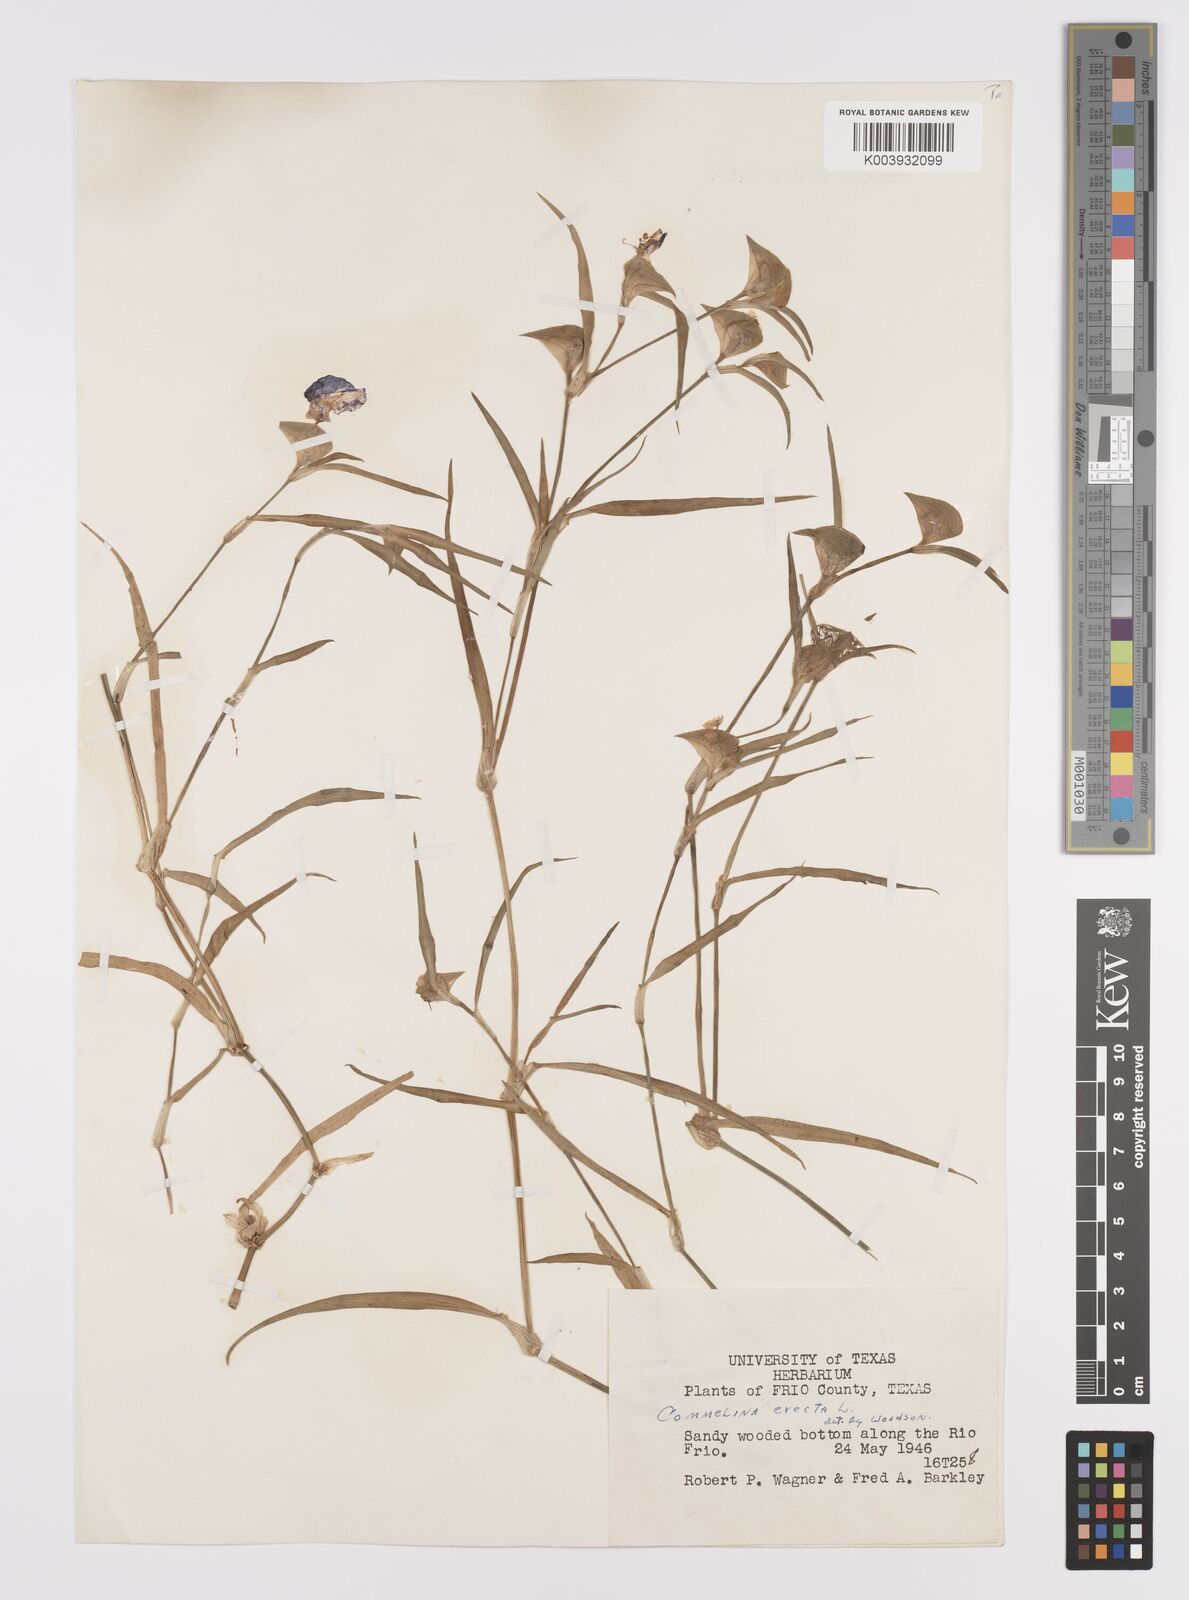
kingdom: Plantae
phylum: Tracheophyta
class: Liliopsida
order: Commelinales
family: Commelinaceae
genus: Commelina
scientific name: Commelina erecta
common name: Blousel blommetjie
